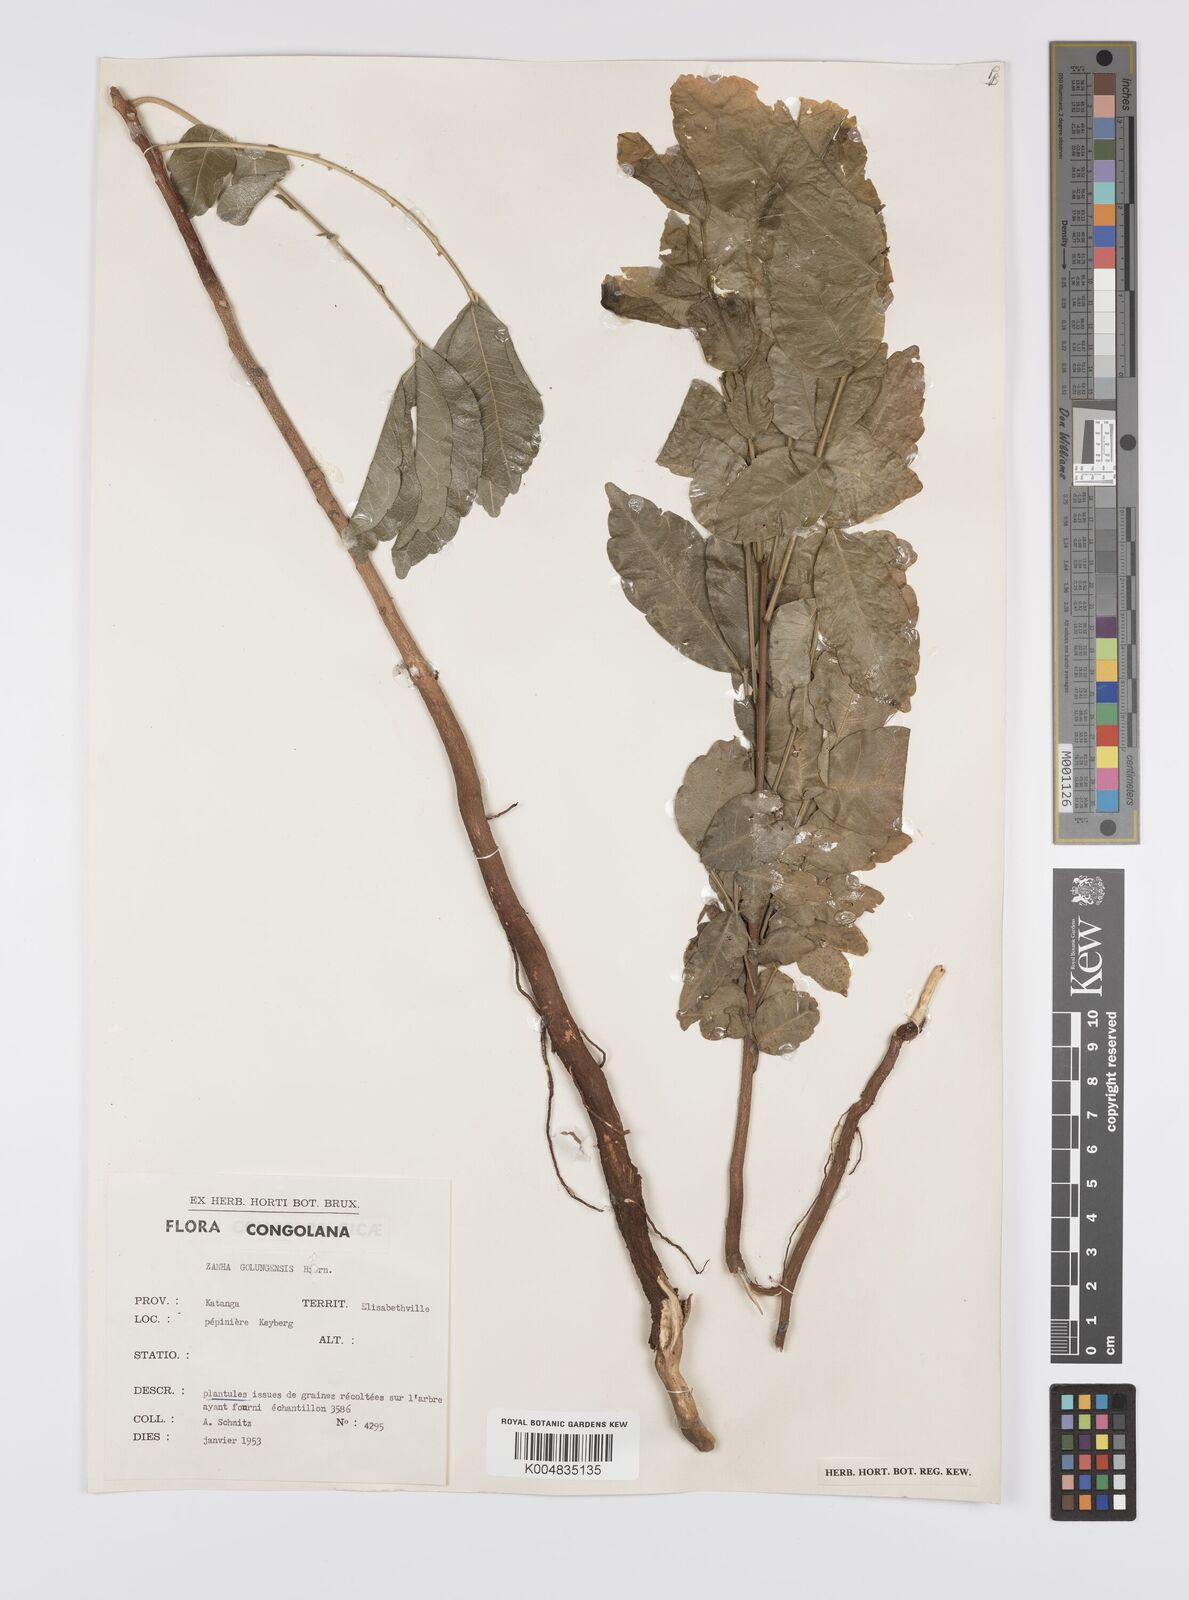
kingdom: Plantae
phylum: Tracheophyta
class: Magnoliopsida
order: Sapindales
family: Sapindaceae
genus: Zanha
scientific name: Zanha golungensis
